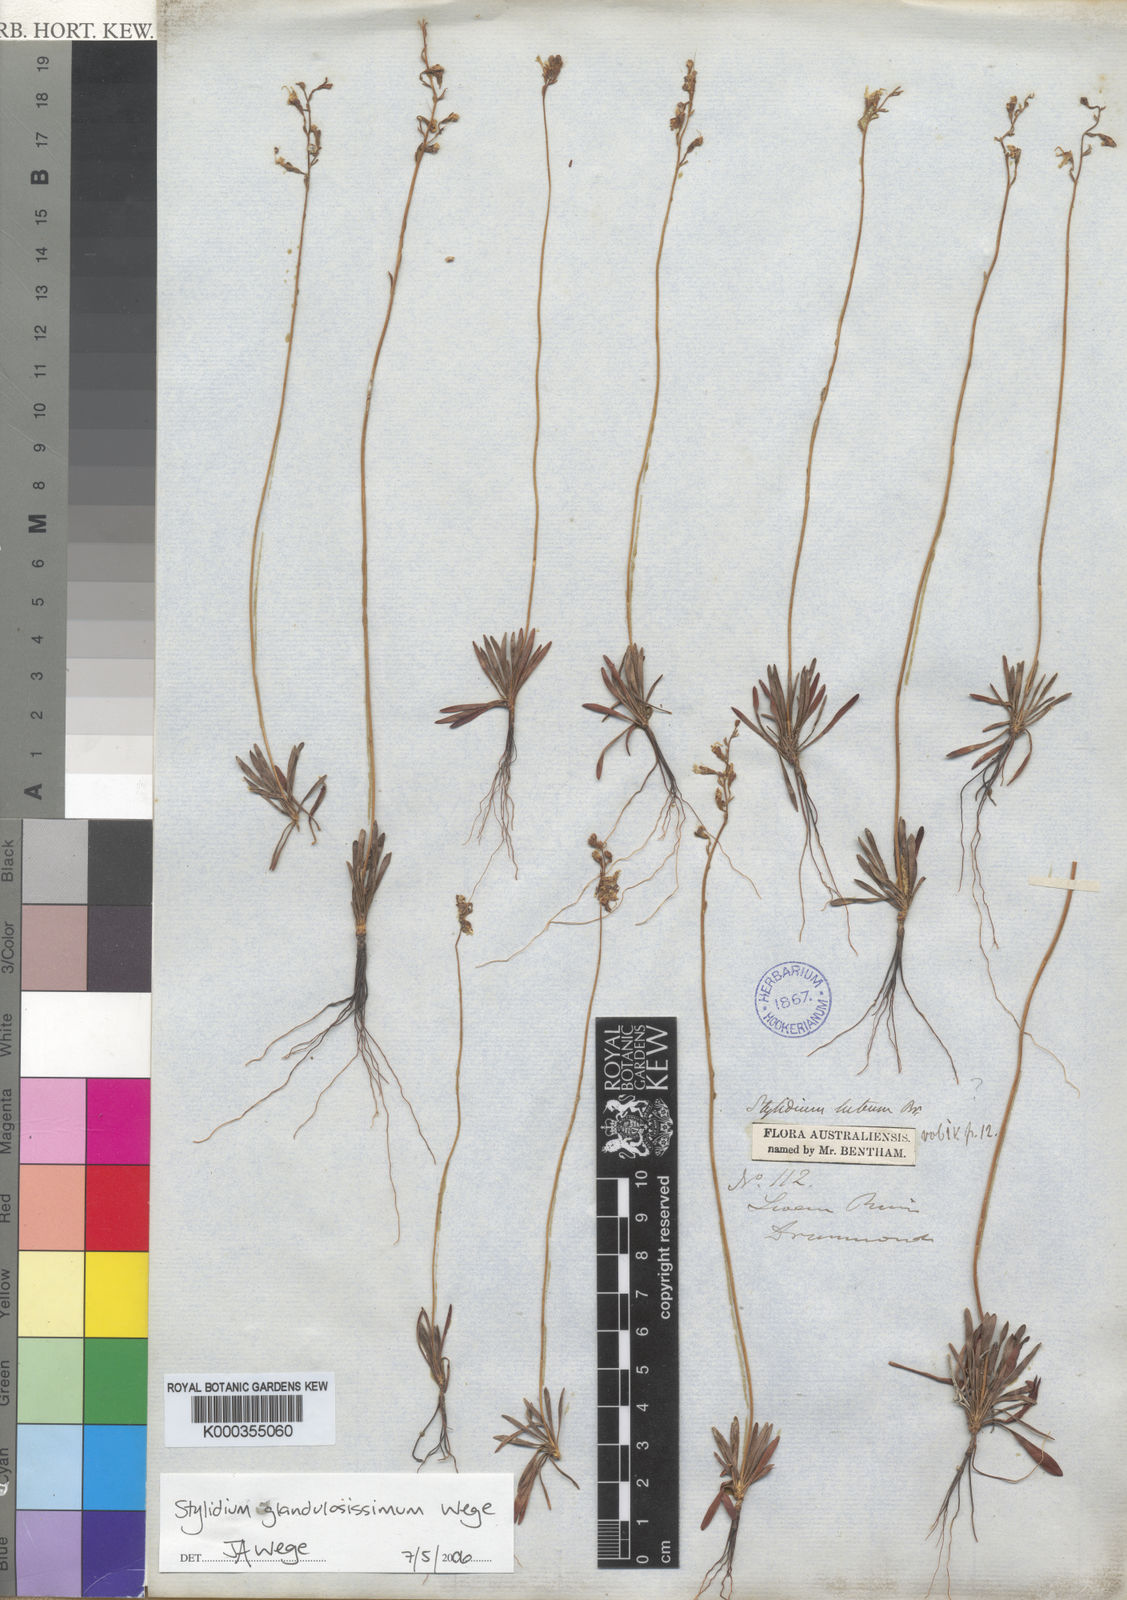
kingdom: Plantae
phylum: Tracheophyta
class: Magnoliopsida
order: Asterales
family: Stylidiaceae
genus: Stylidium
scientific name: Stylidium glandulosissimum
